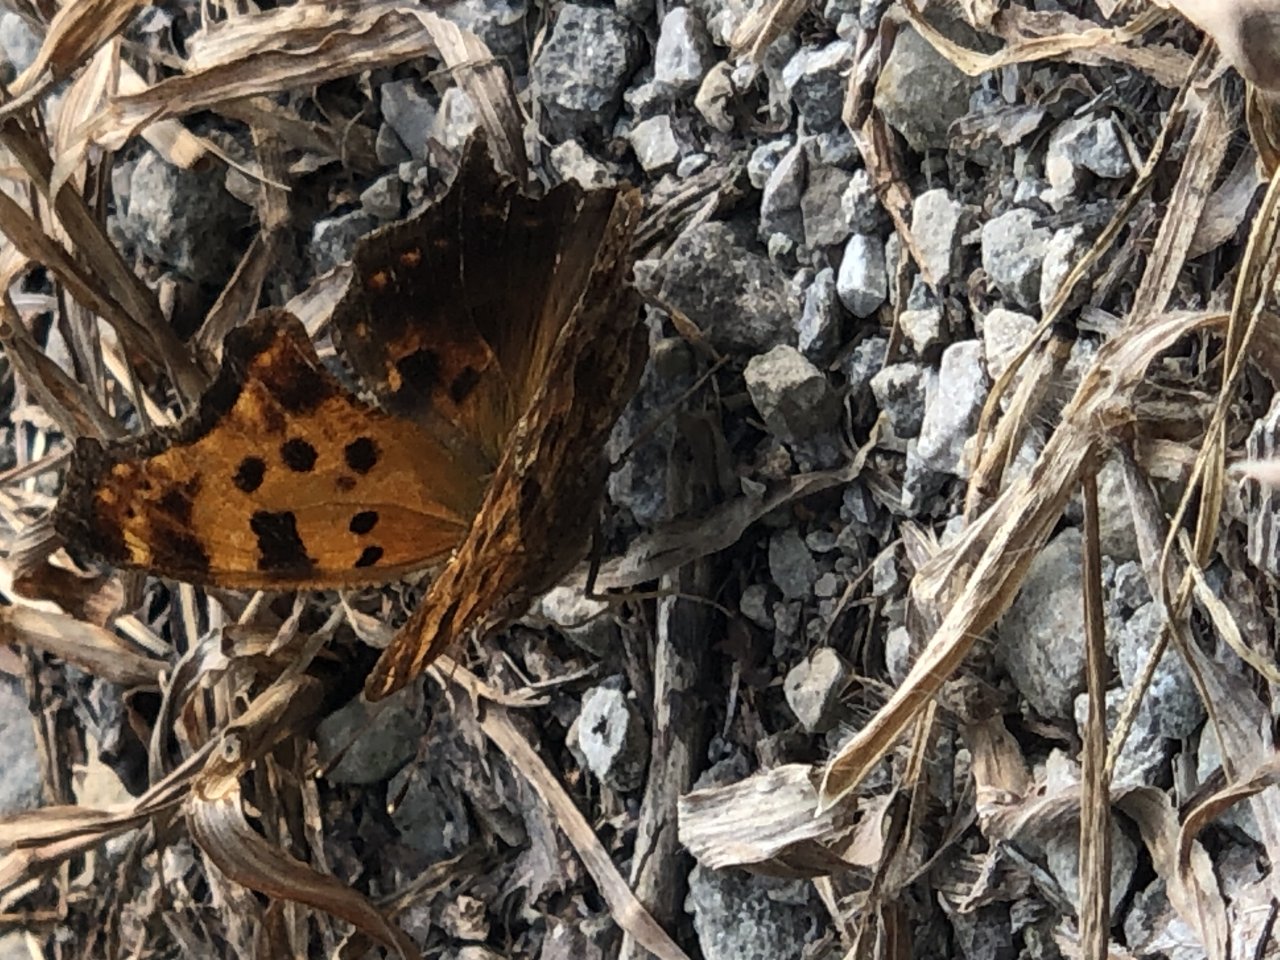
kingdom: Animalia
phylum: Arthropoda
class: Insecta
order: Lepidoptera
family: Nymphalidae
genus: Polygonia
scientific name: Polygonia comma
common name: Eastern Comma
